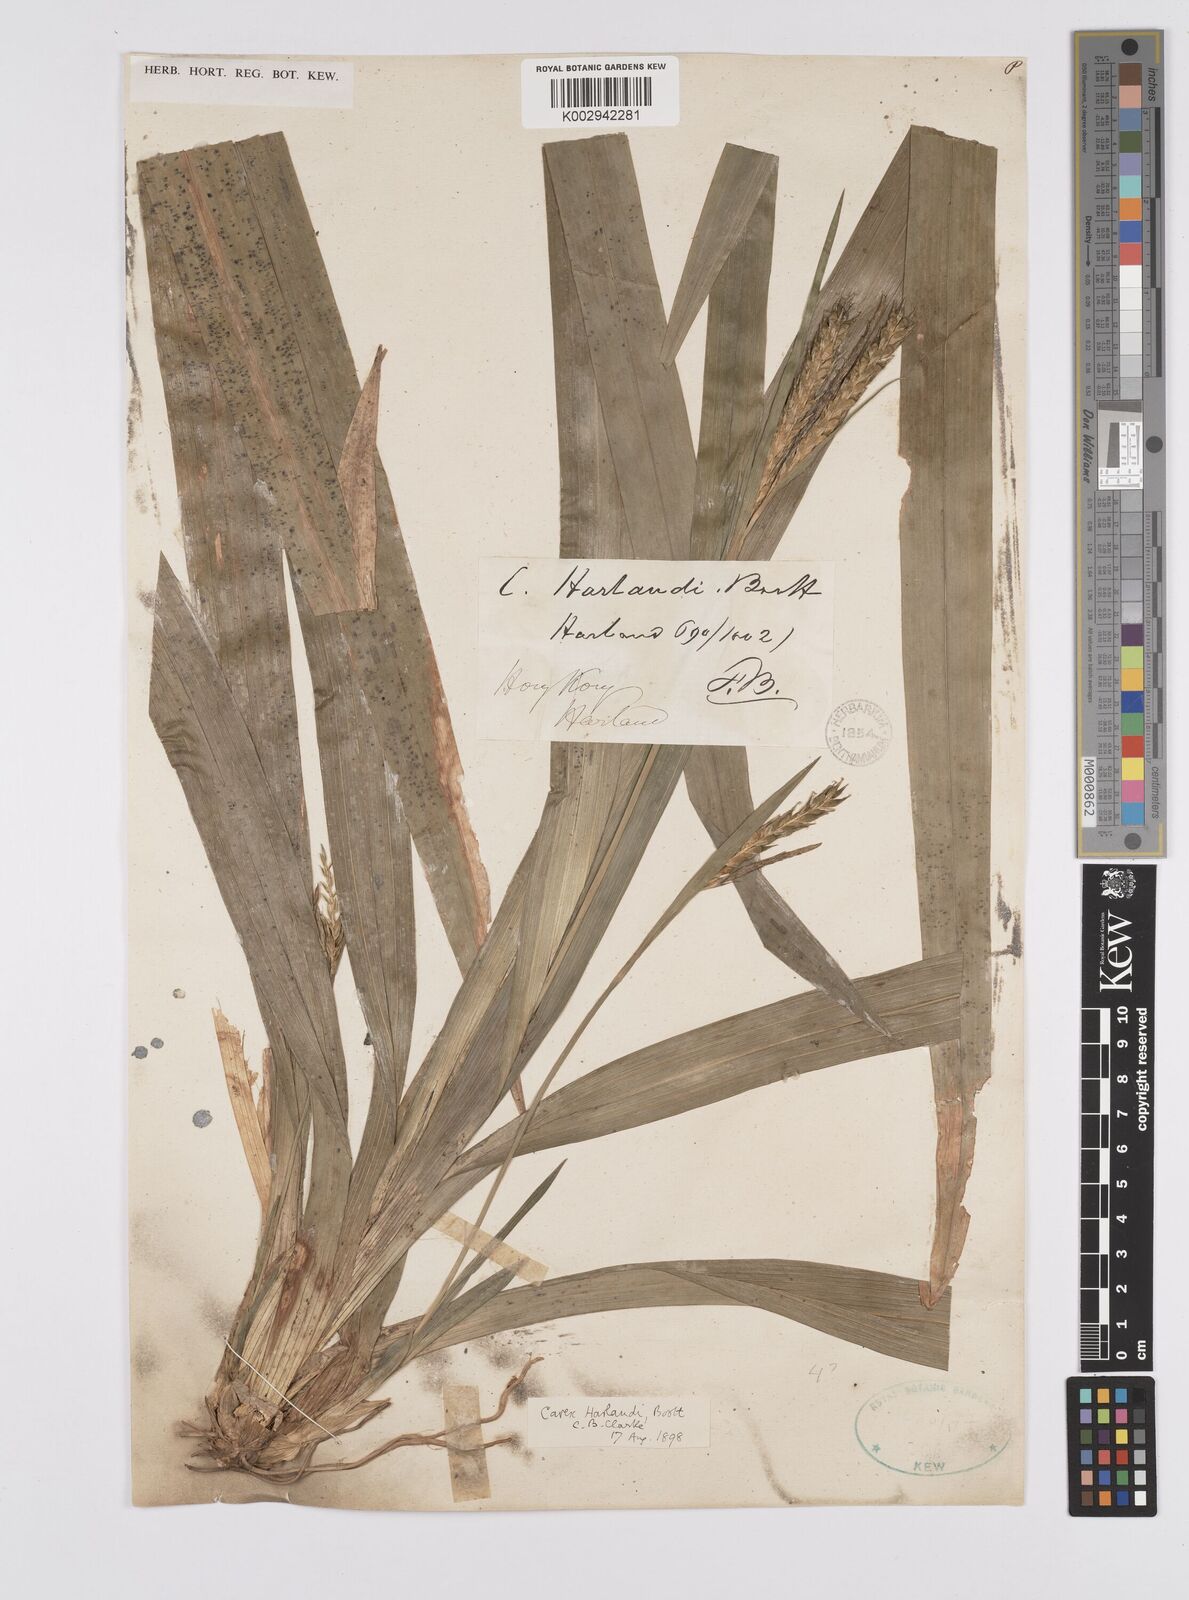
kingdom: Plantae
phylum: Tracheophyta
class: Liliopsida
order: Poales
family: Cyperaceae
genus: Carex
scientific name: Carex
